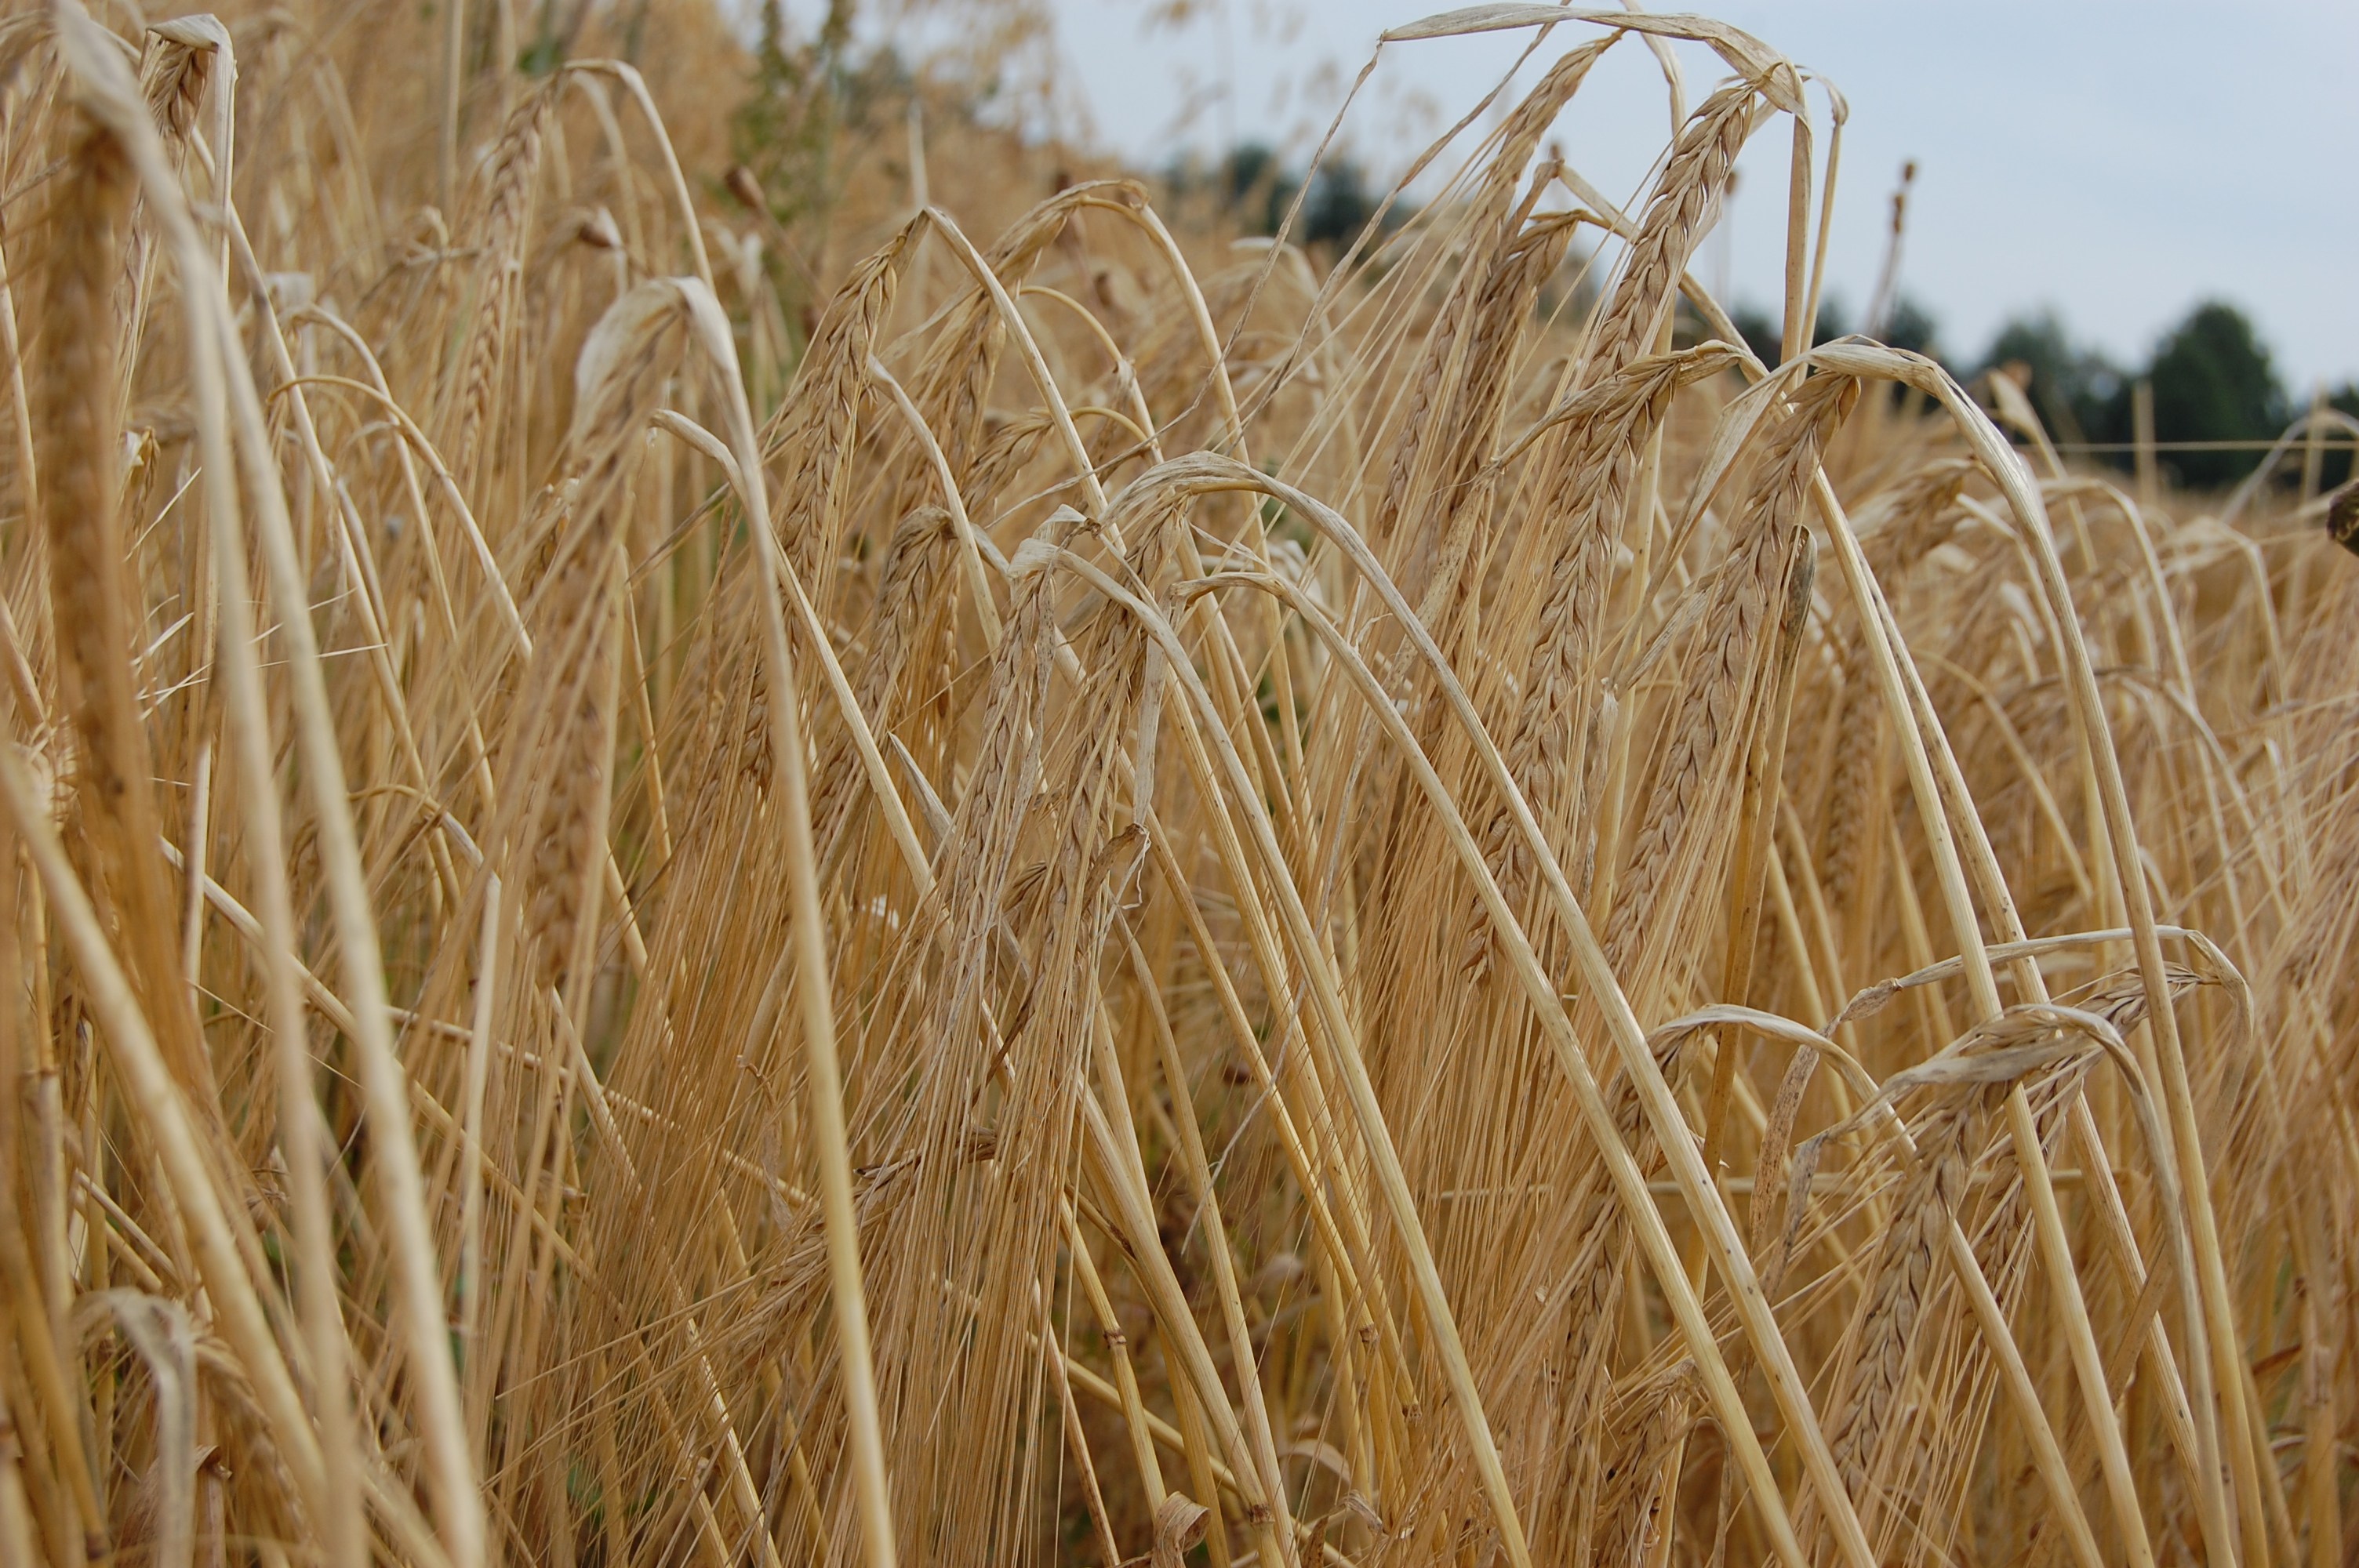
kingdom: Plantae
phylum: Tracheophyta
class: Liliopsida
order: Poales
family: Poaceae
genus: Hordeum
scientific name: Hordeum vulgare
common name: Common barley
